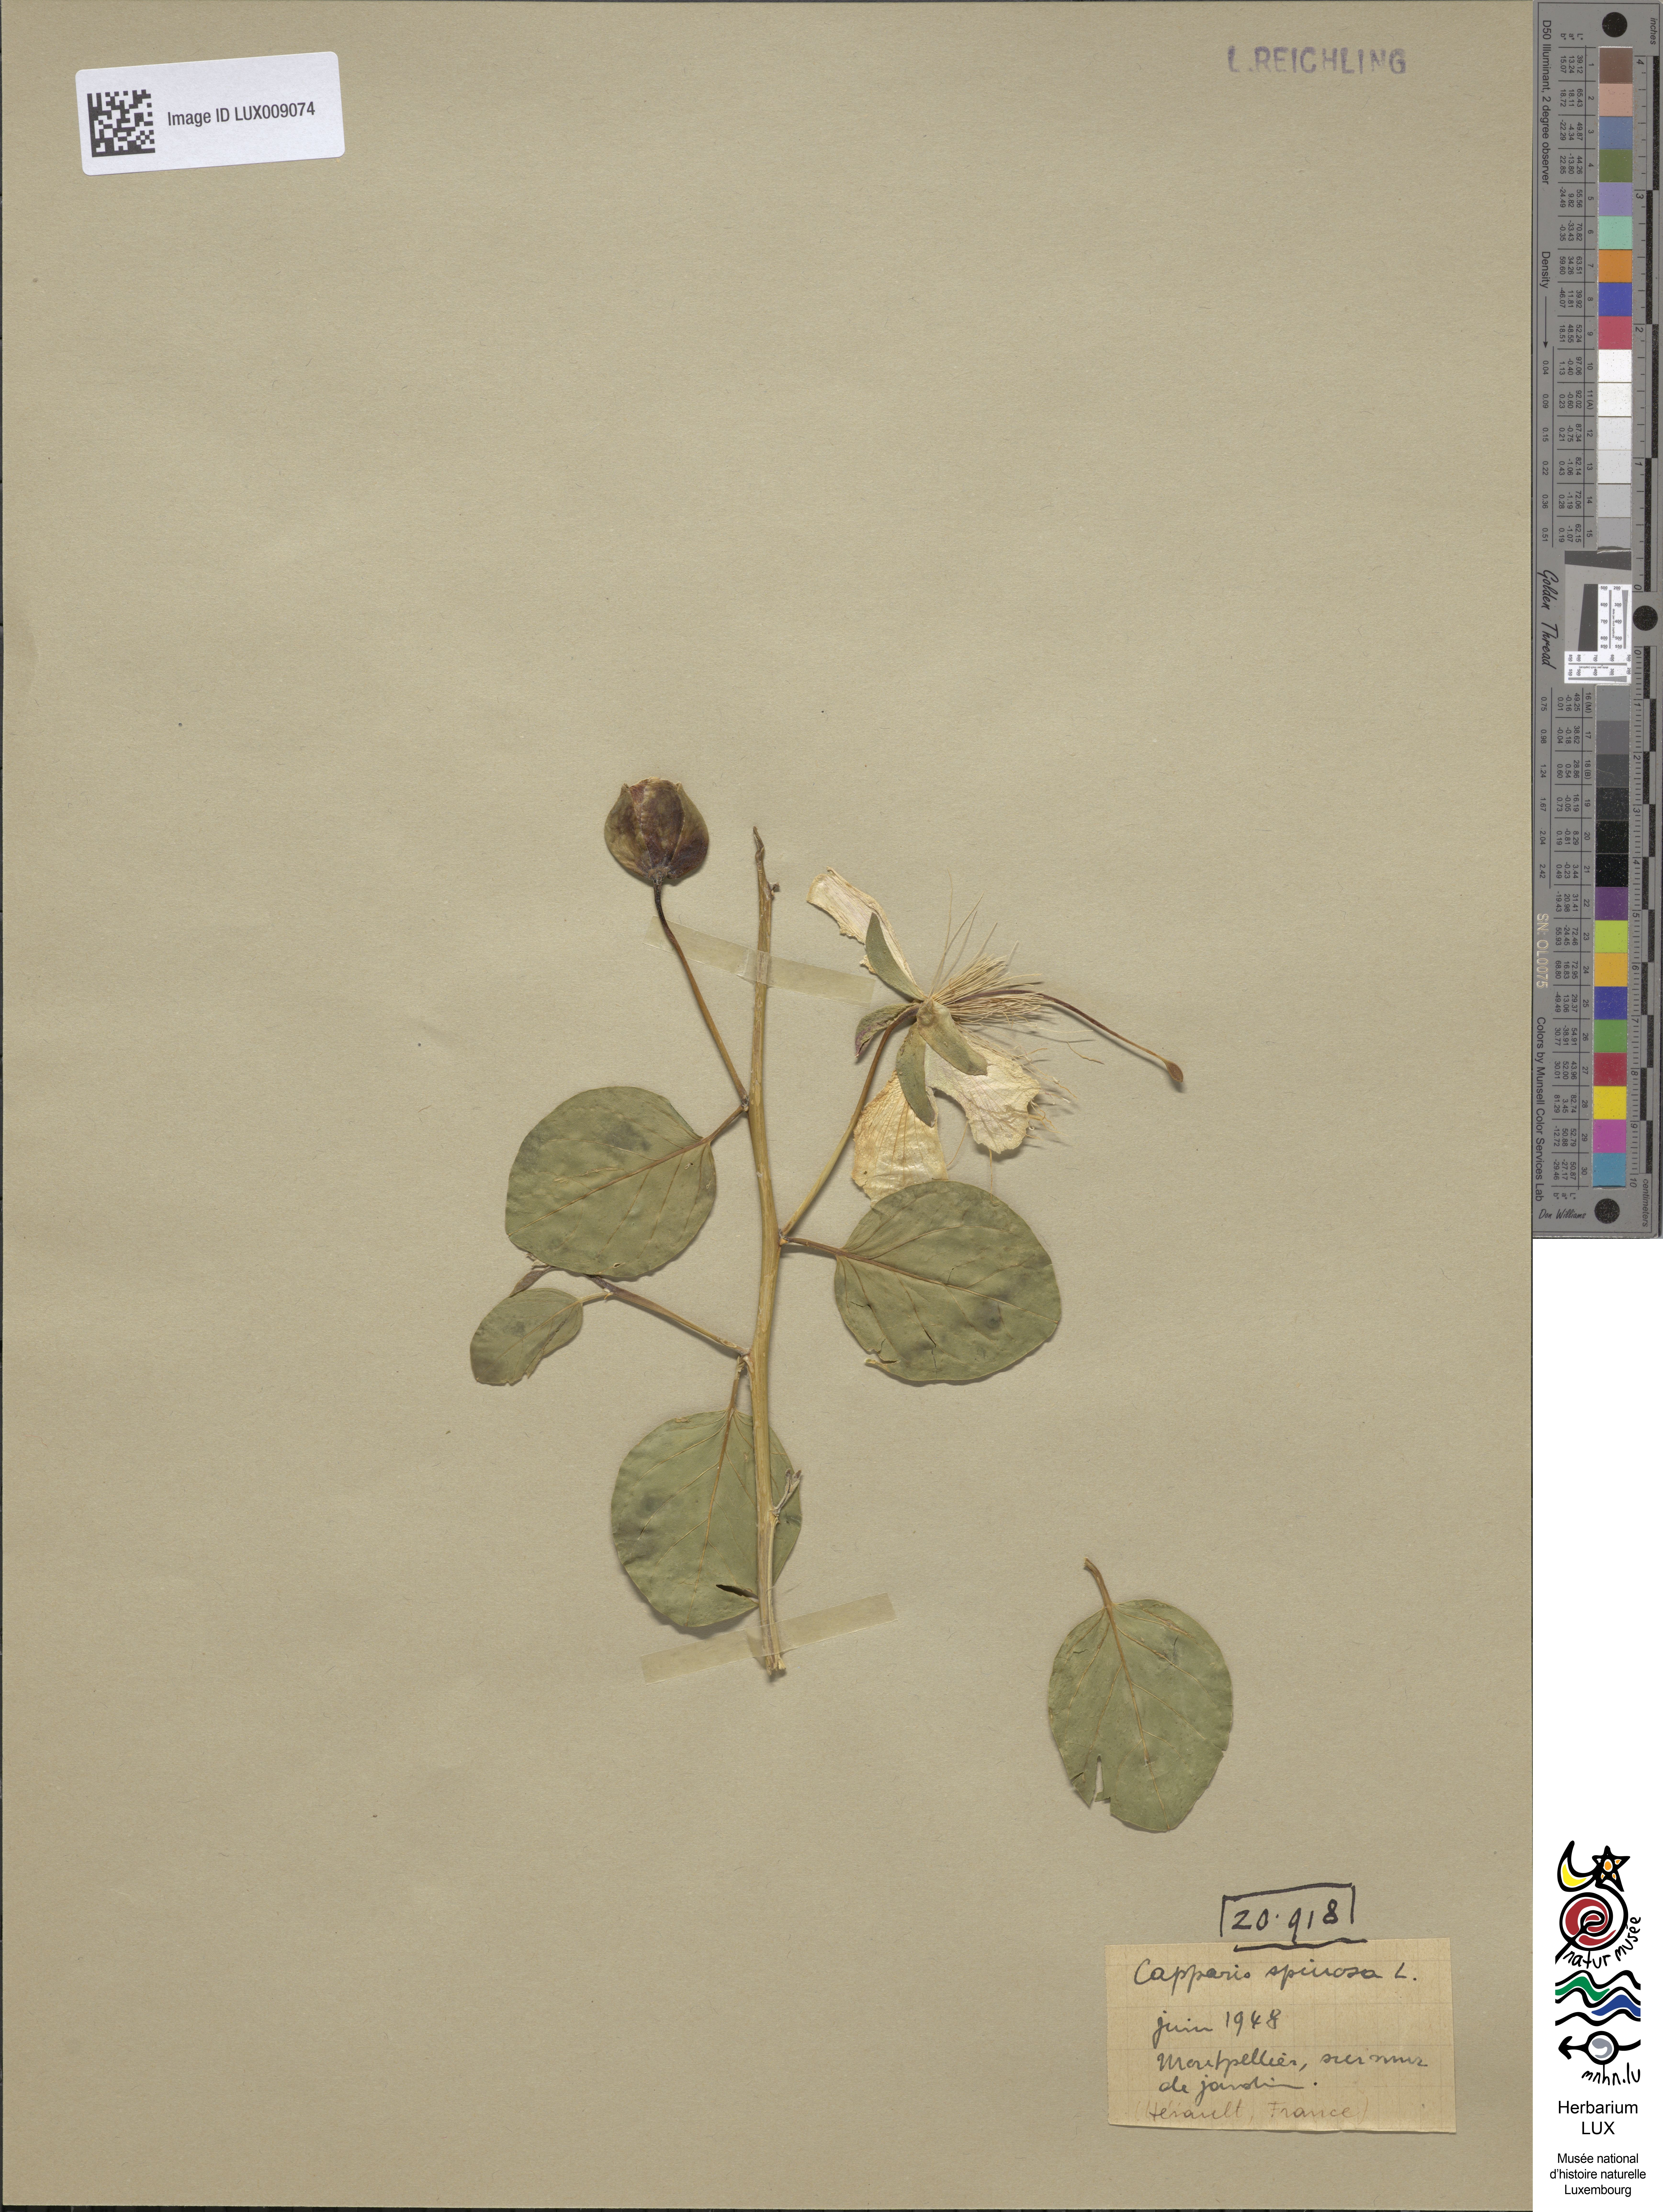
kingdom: Plantae
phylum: Tracheophyta
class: Magnoliopsida
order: Brassicales
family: Capparaceae
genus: Capparis
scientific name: Capparis spinosa
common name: Caper
